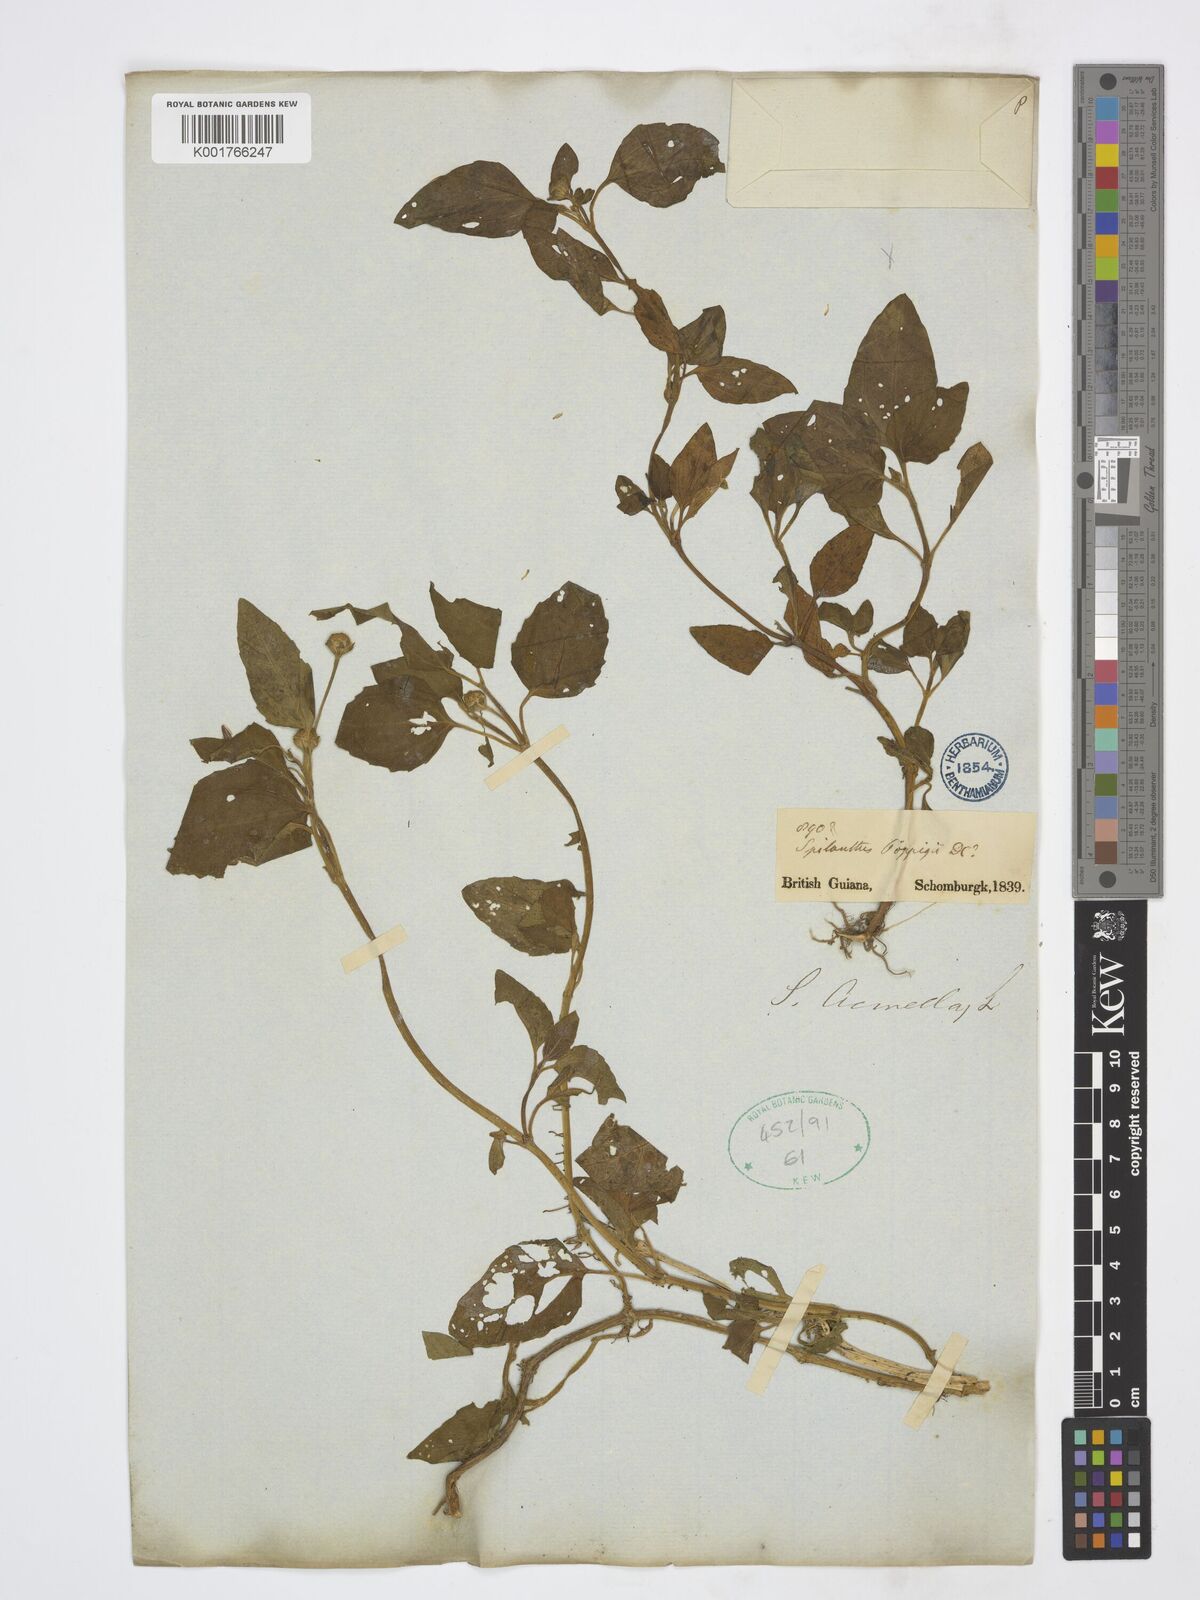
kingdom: Plantae
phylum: Tracheophyta
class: Magnoliopsida
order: Asterales
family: Asteraceae
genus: Acmella
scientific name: Acmella ciliata
